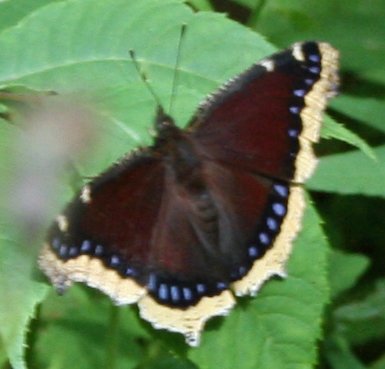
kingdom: Animalia
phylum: Arthropoda
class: Insecta
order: Lepidoptera
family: Nymphalidae
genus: Nymphalis
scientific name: Nymphalis antiopa
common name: Mourning Cloak
